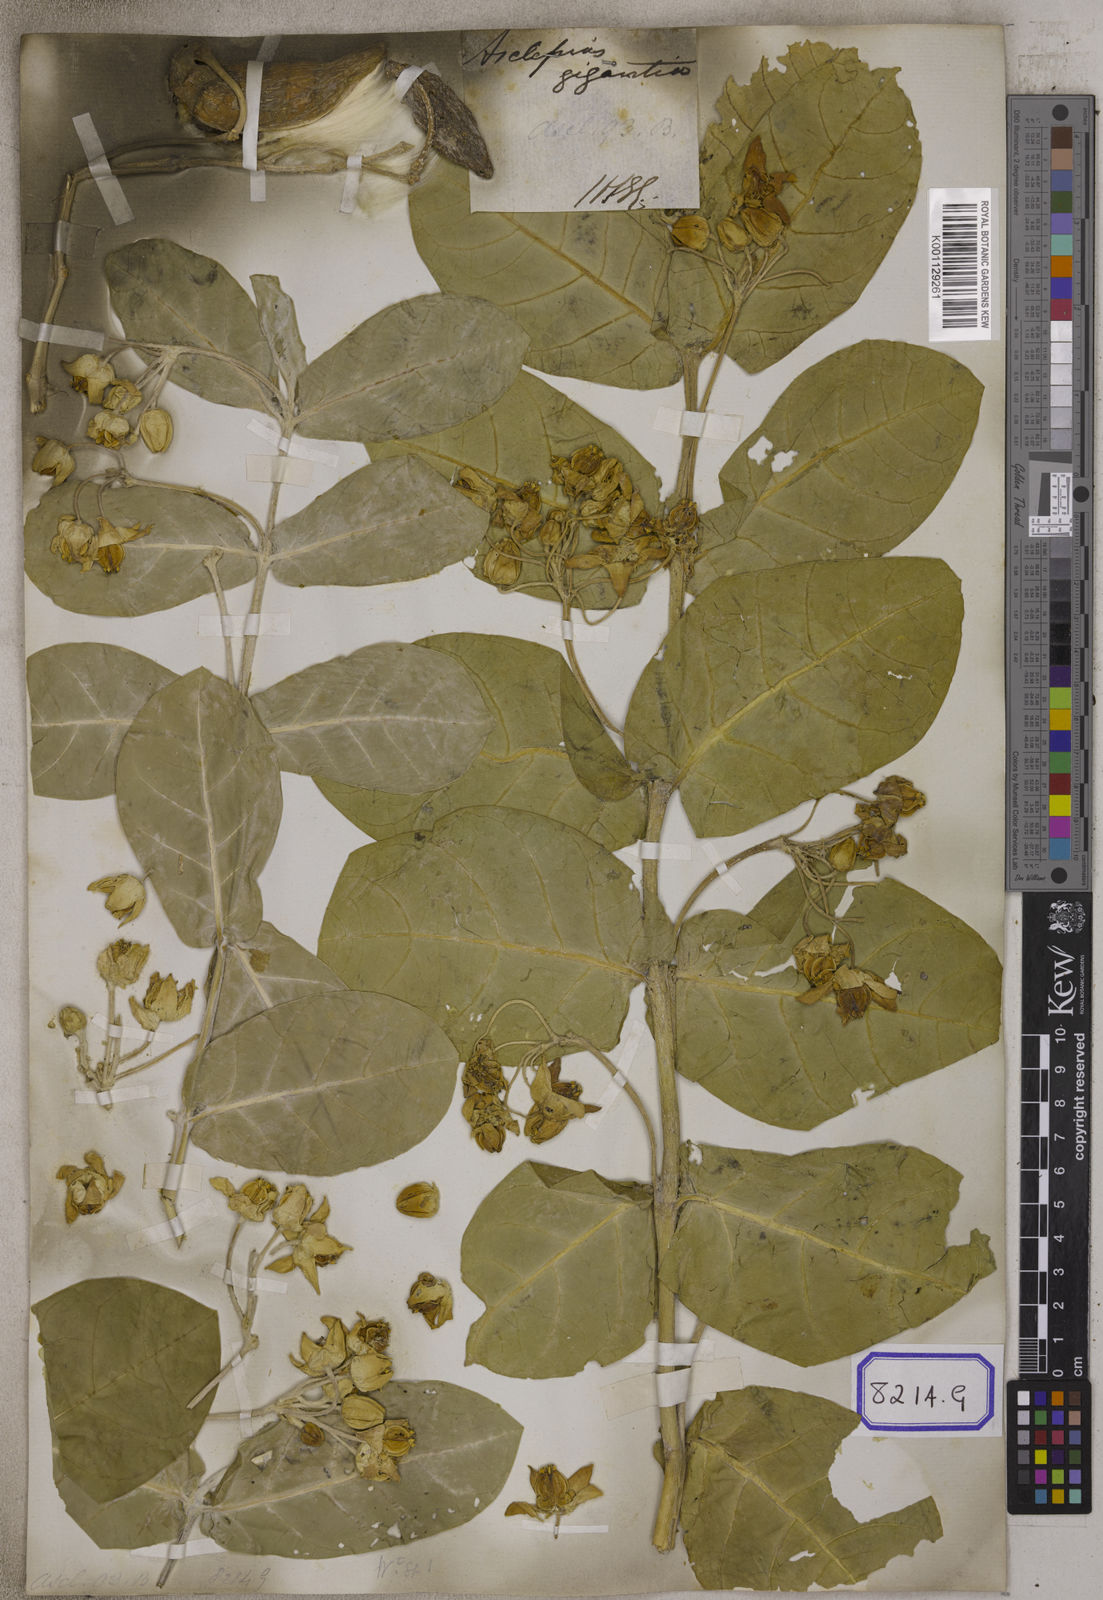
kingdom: Plantae
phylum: Tracheophyta
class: Magnoliopsida
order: Gentianales
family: Apocynaceae
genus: Calotropis
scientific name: Calotropis gigantea
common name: Crown flower
